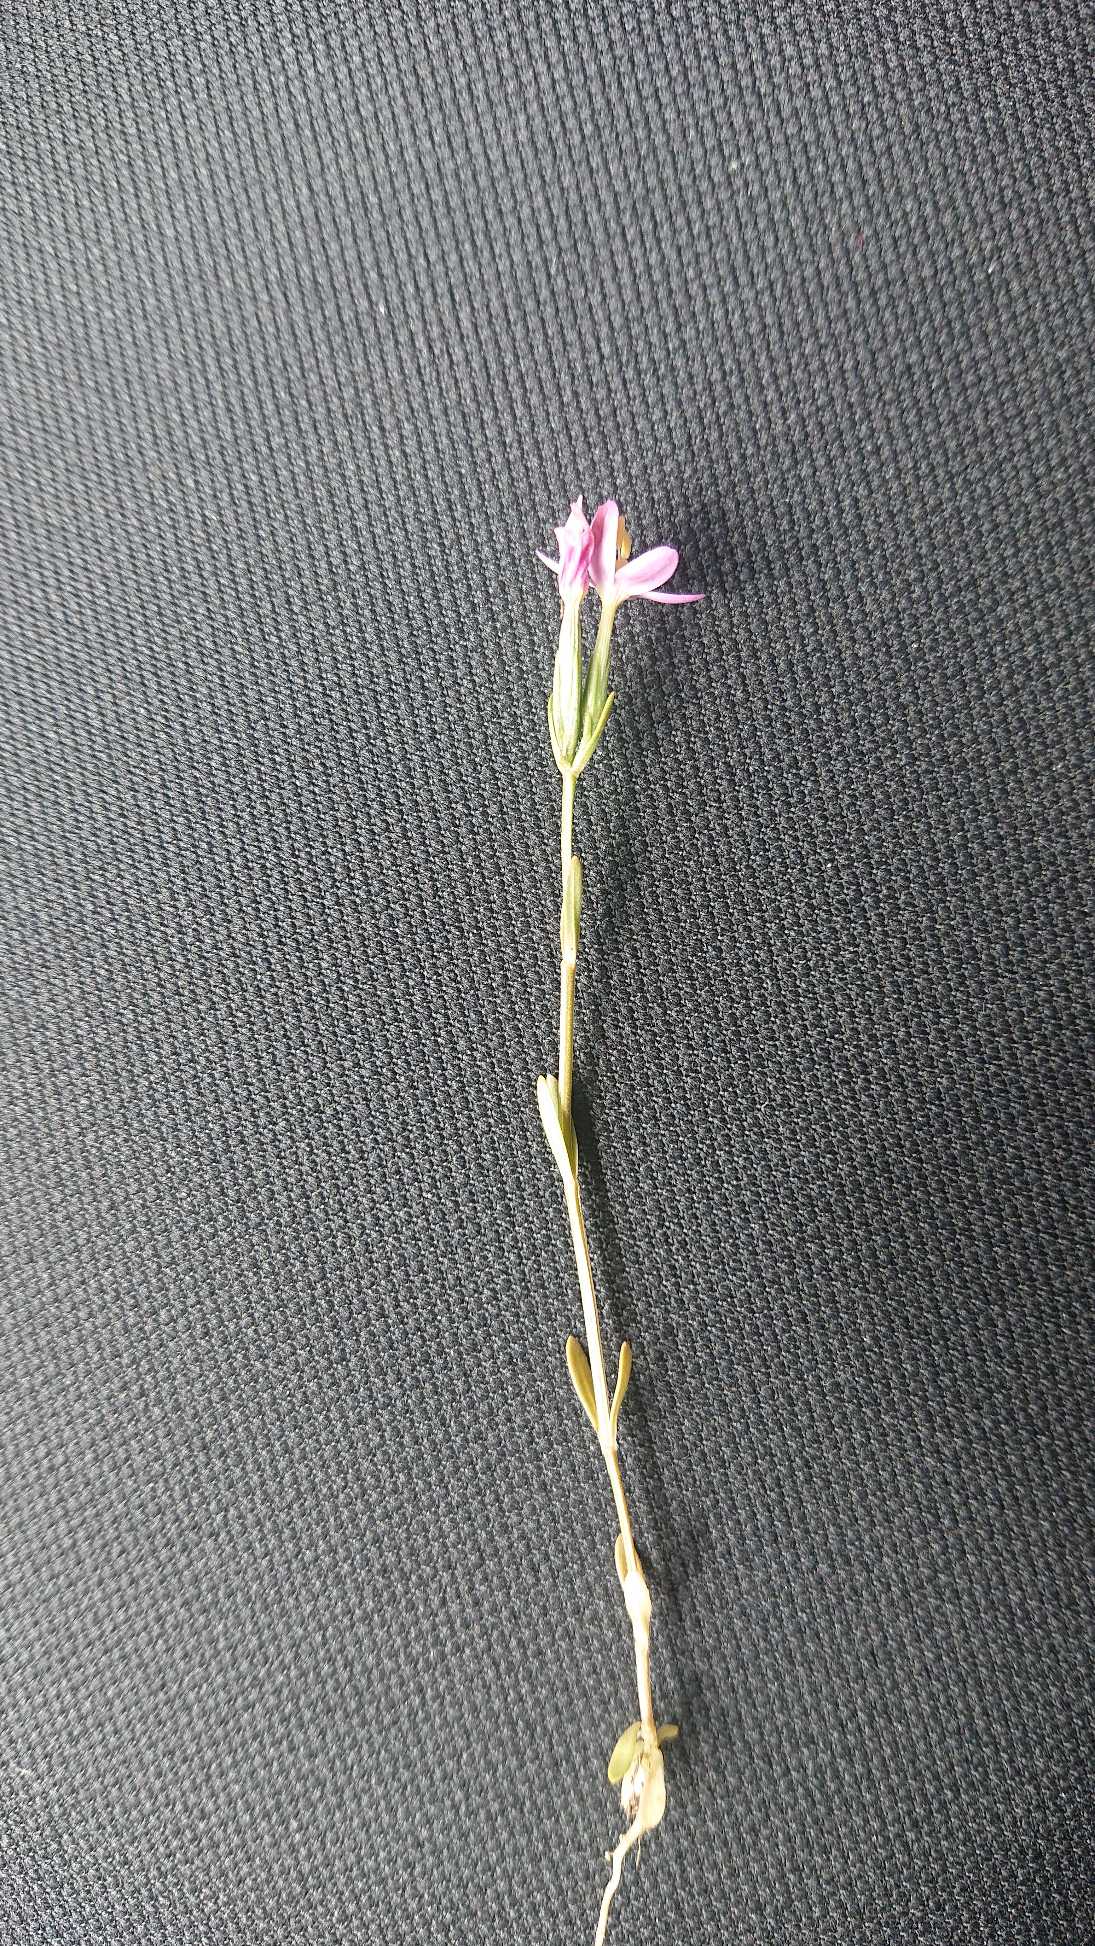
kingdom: Plantae
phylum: Tracheophyta
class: Magnoliopsida
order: Gentianales
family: Gentianaceae
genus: Centaurium
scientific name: Centaurium pulchellum
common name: Liden tusindgylden
